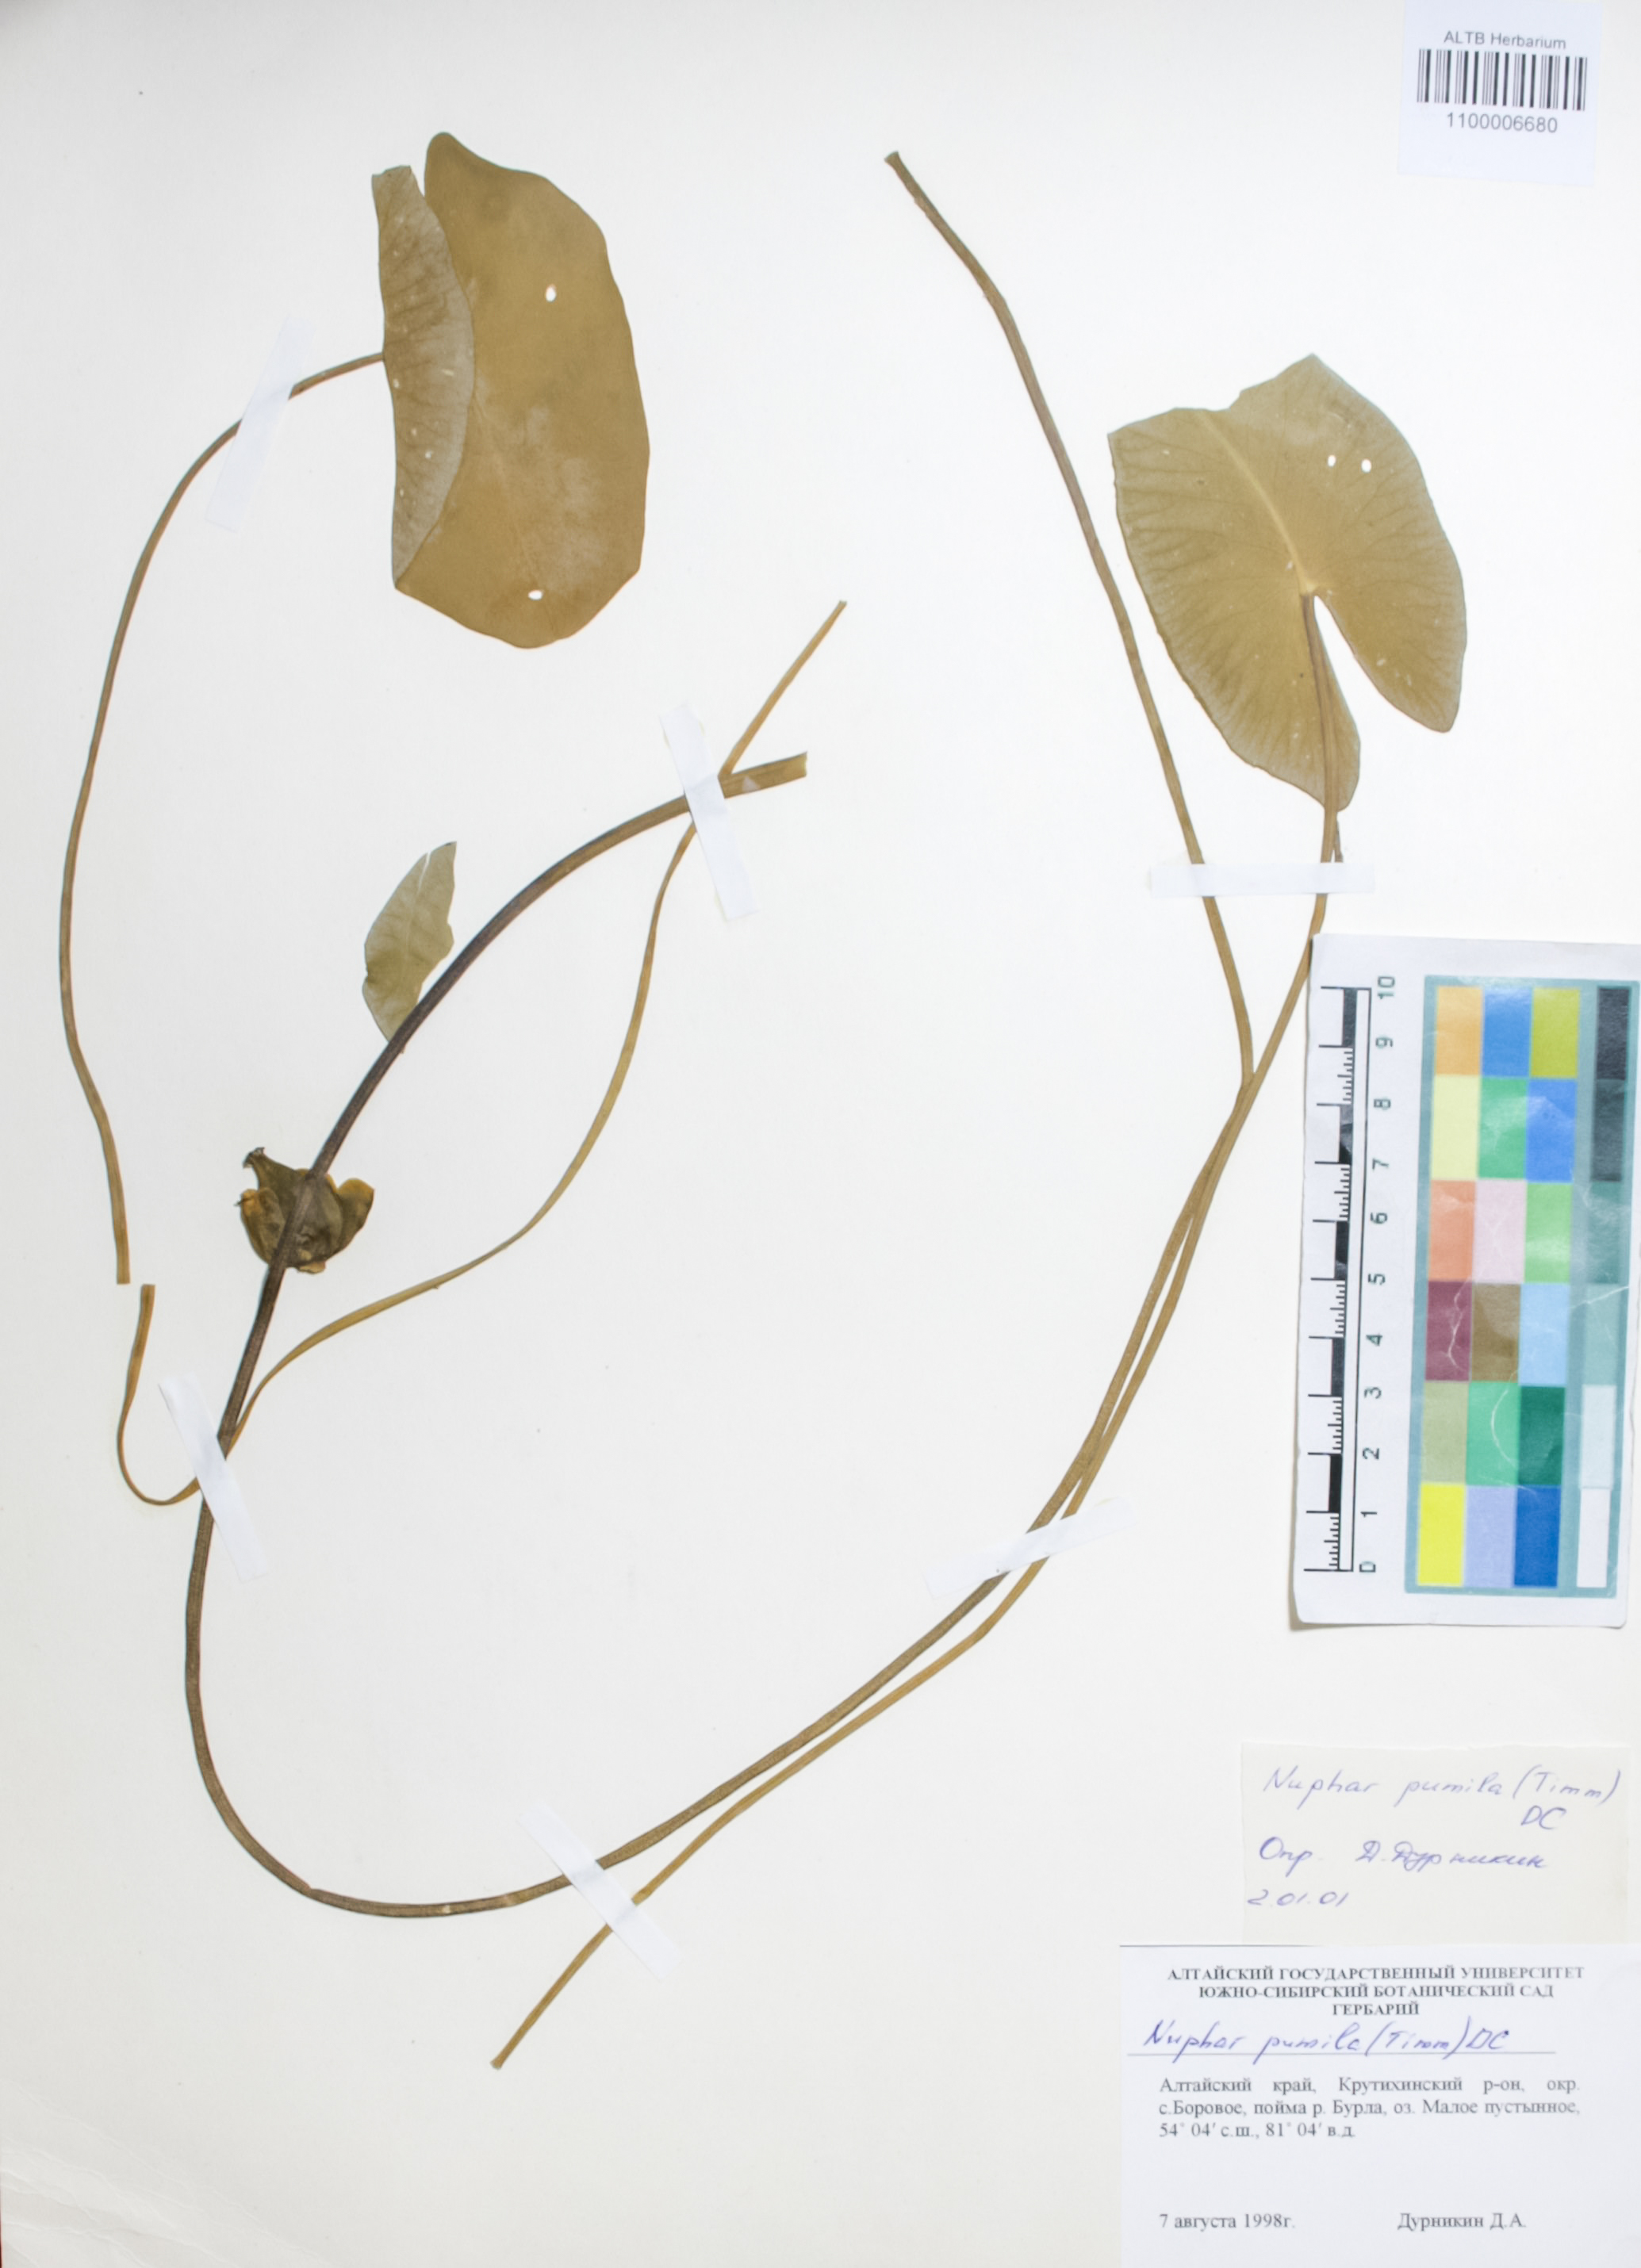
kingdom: Plantae
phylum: Tracheophyta
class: Magnoliopsida
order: Nymphaeales
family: Nymphaeaceae
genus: Nuphar
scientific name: Nuphar pumila
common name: Least water-lily
